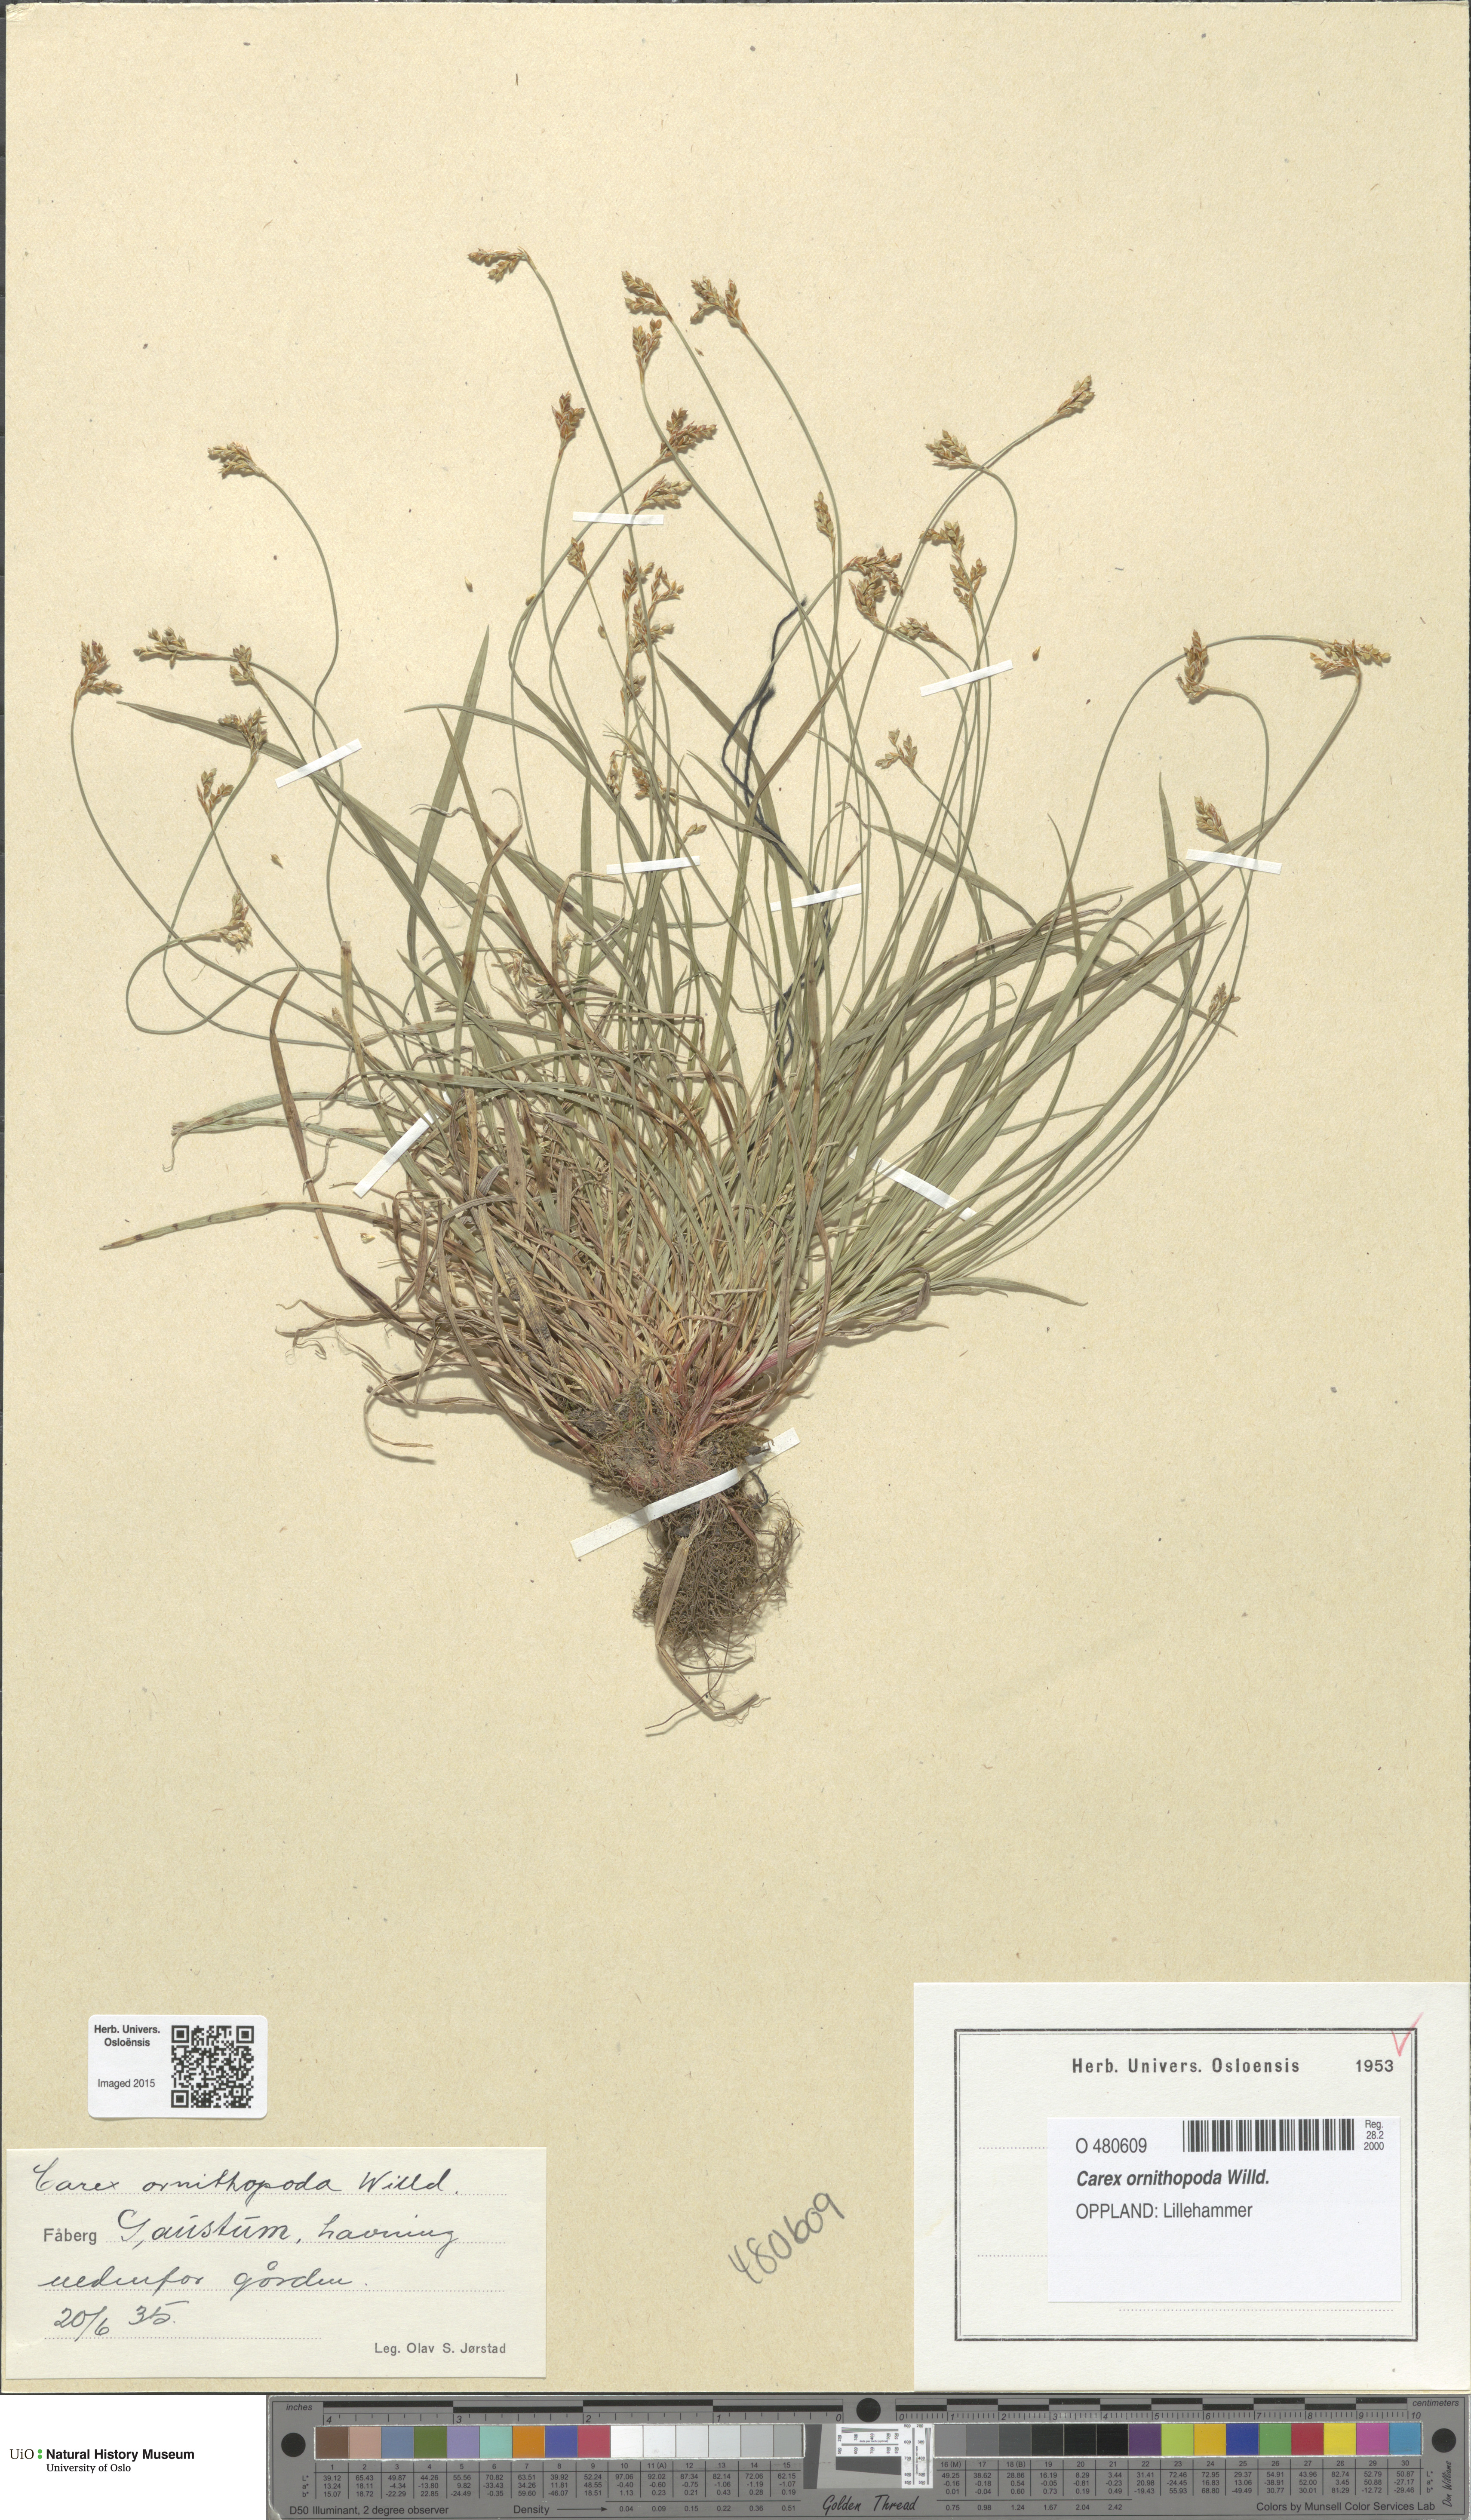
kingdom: Plantae
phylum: Tracheophyta
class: Liliopsida
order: Poales
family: Cyperaceae
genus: Carex
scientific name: Carex ornithopoda
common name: Bird's-foot sedge
